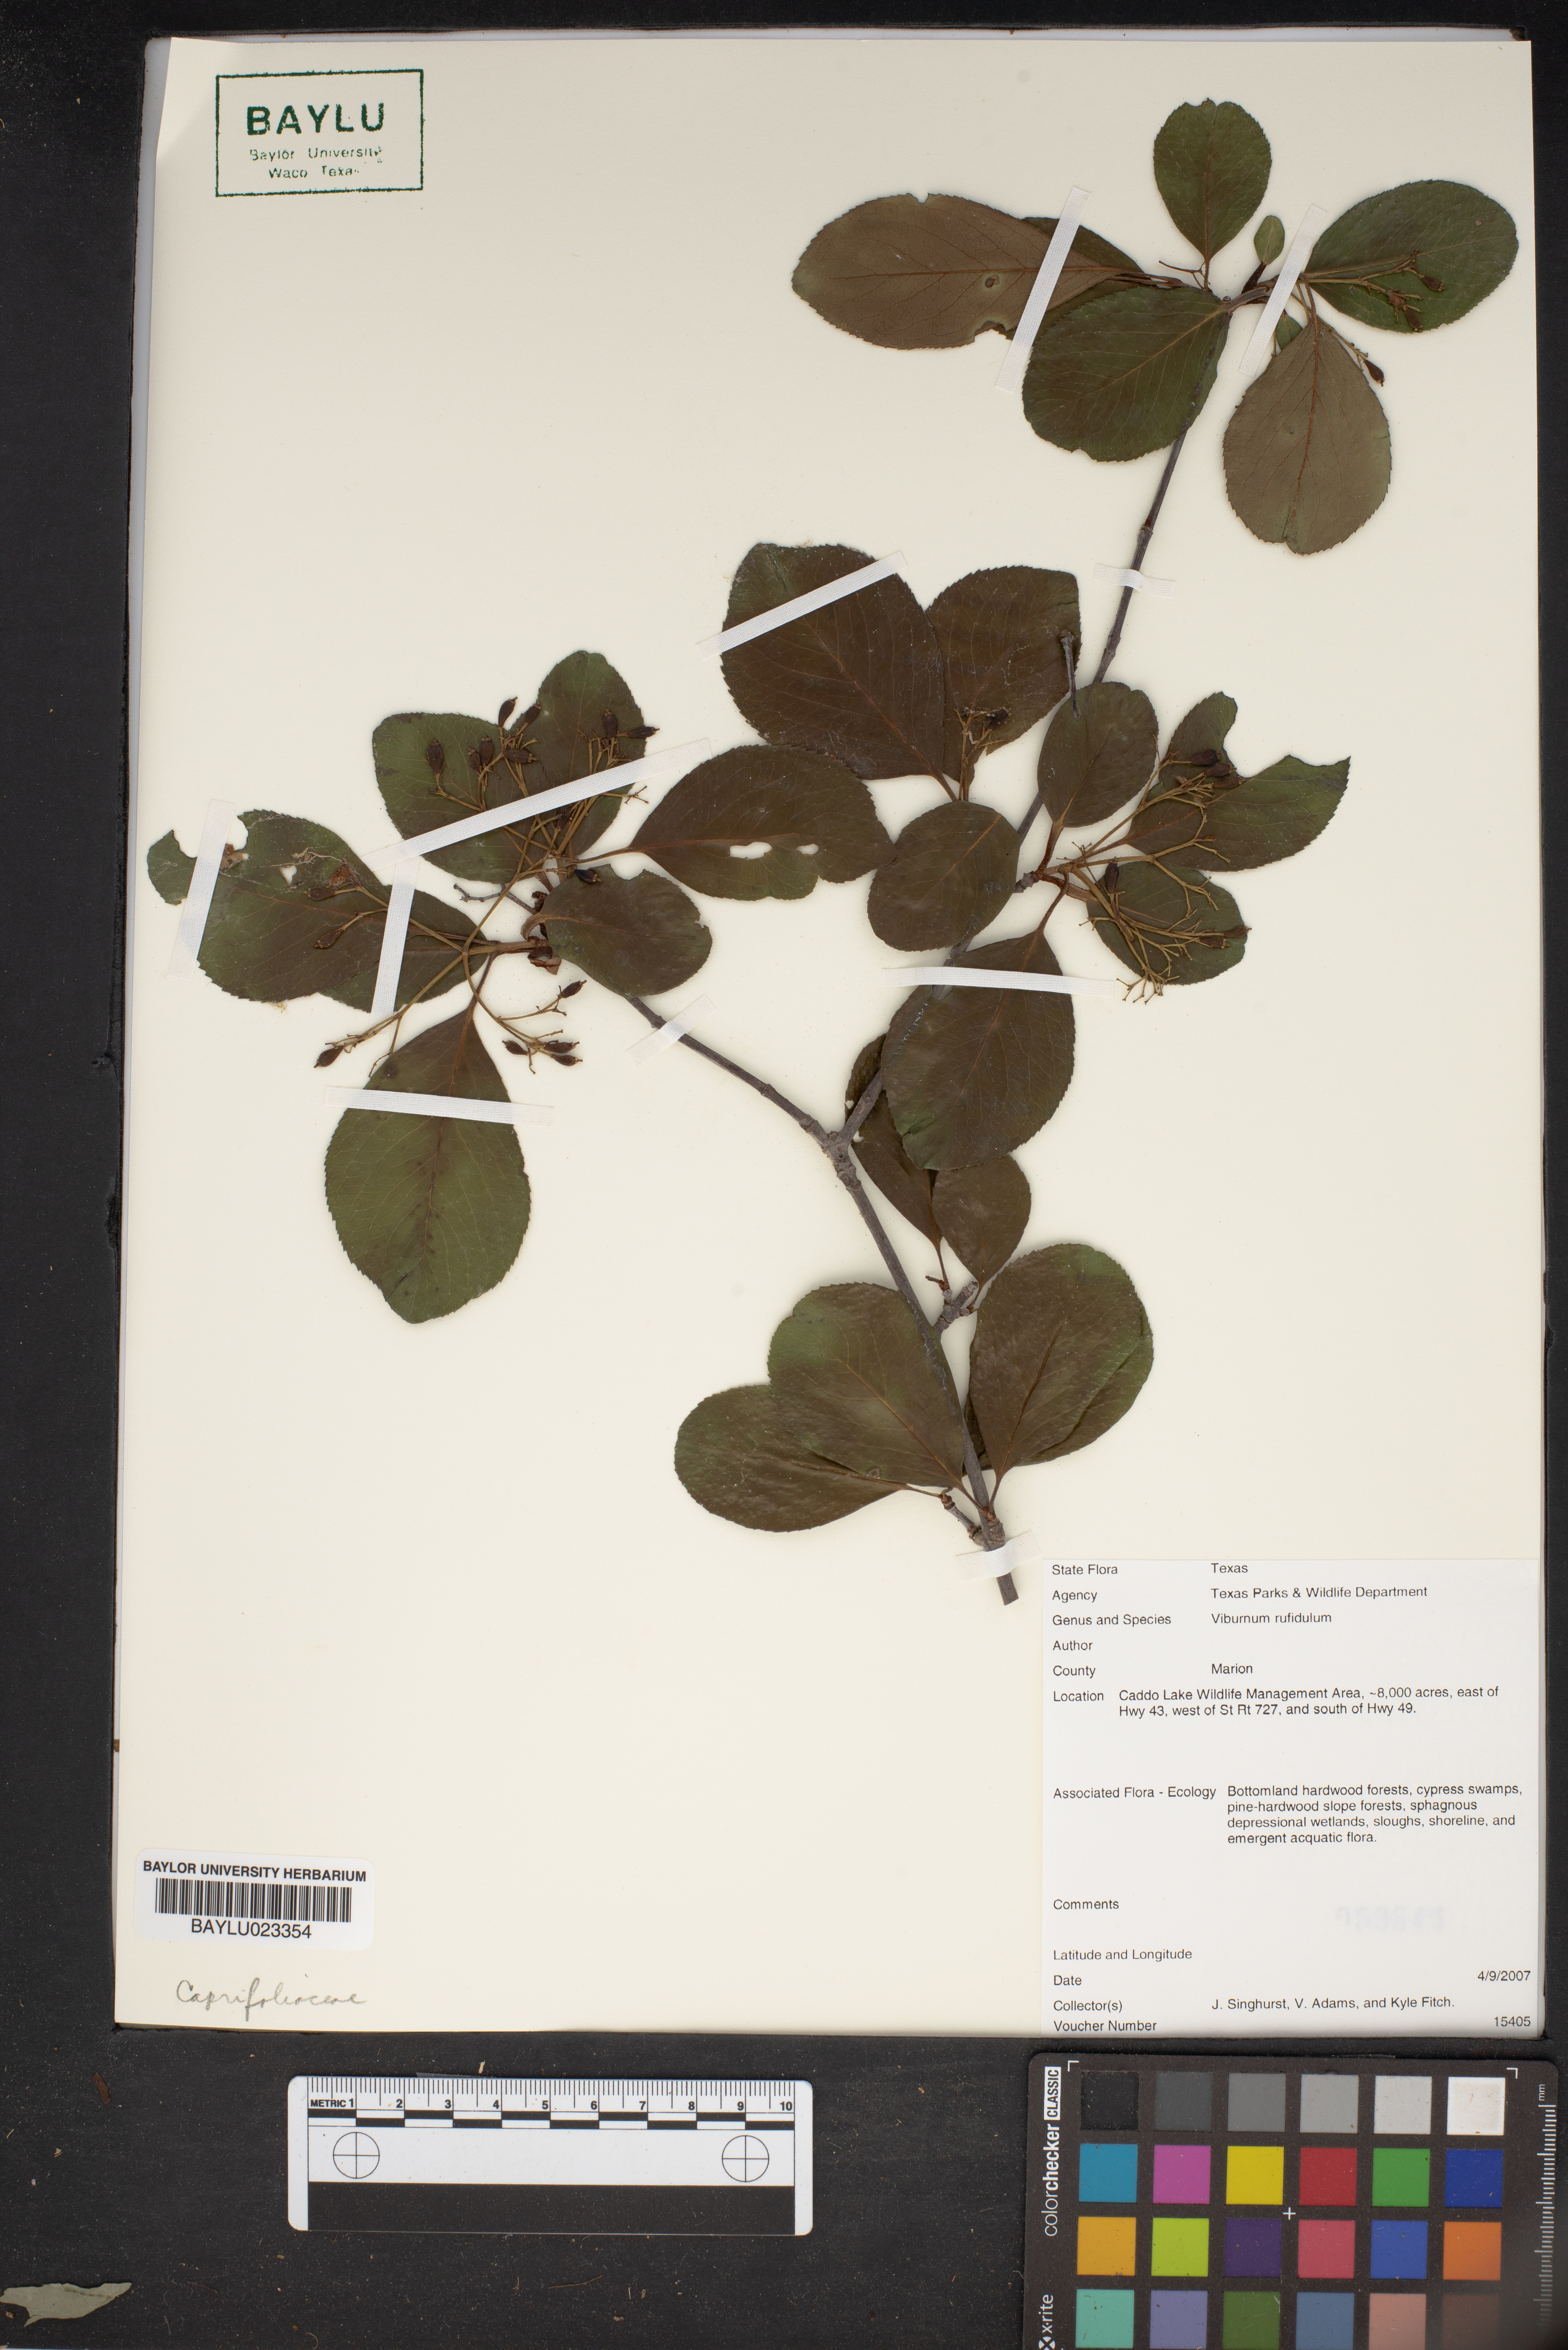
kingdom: Plantae
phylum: Tracheophyta
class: Magnoliopsida
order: Dipsacales
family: Viburnaceae
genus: Viburnum
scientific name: Viburnum rufidulum
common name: Blue haw
